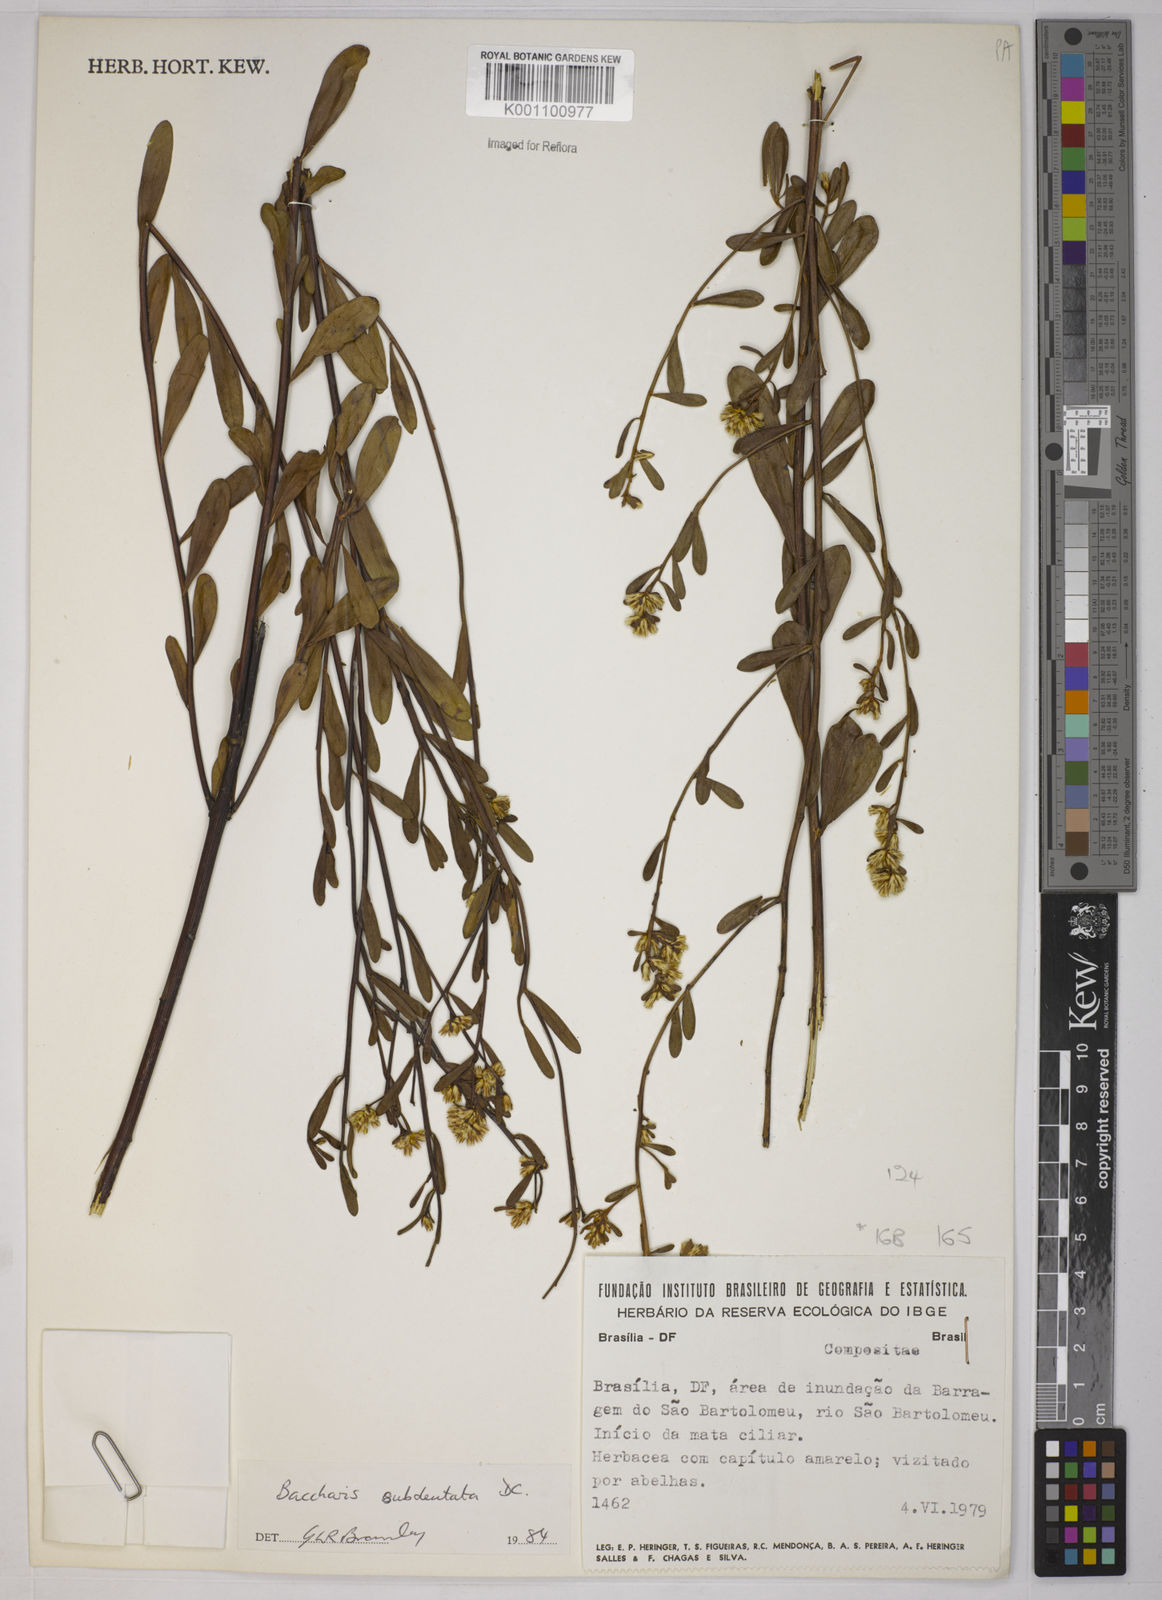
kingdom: Plantae
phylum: Tracheophyta
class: Magnoliopsida
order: Asterales
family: Asteraceae
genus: Baccharis
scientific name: Baccharis subdentata
